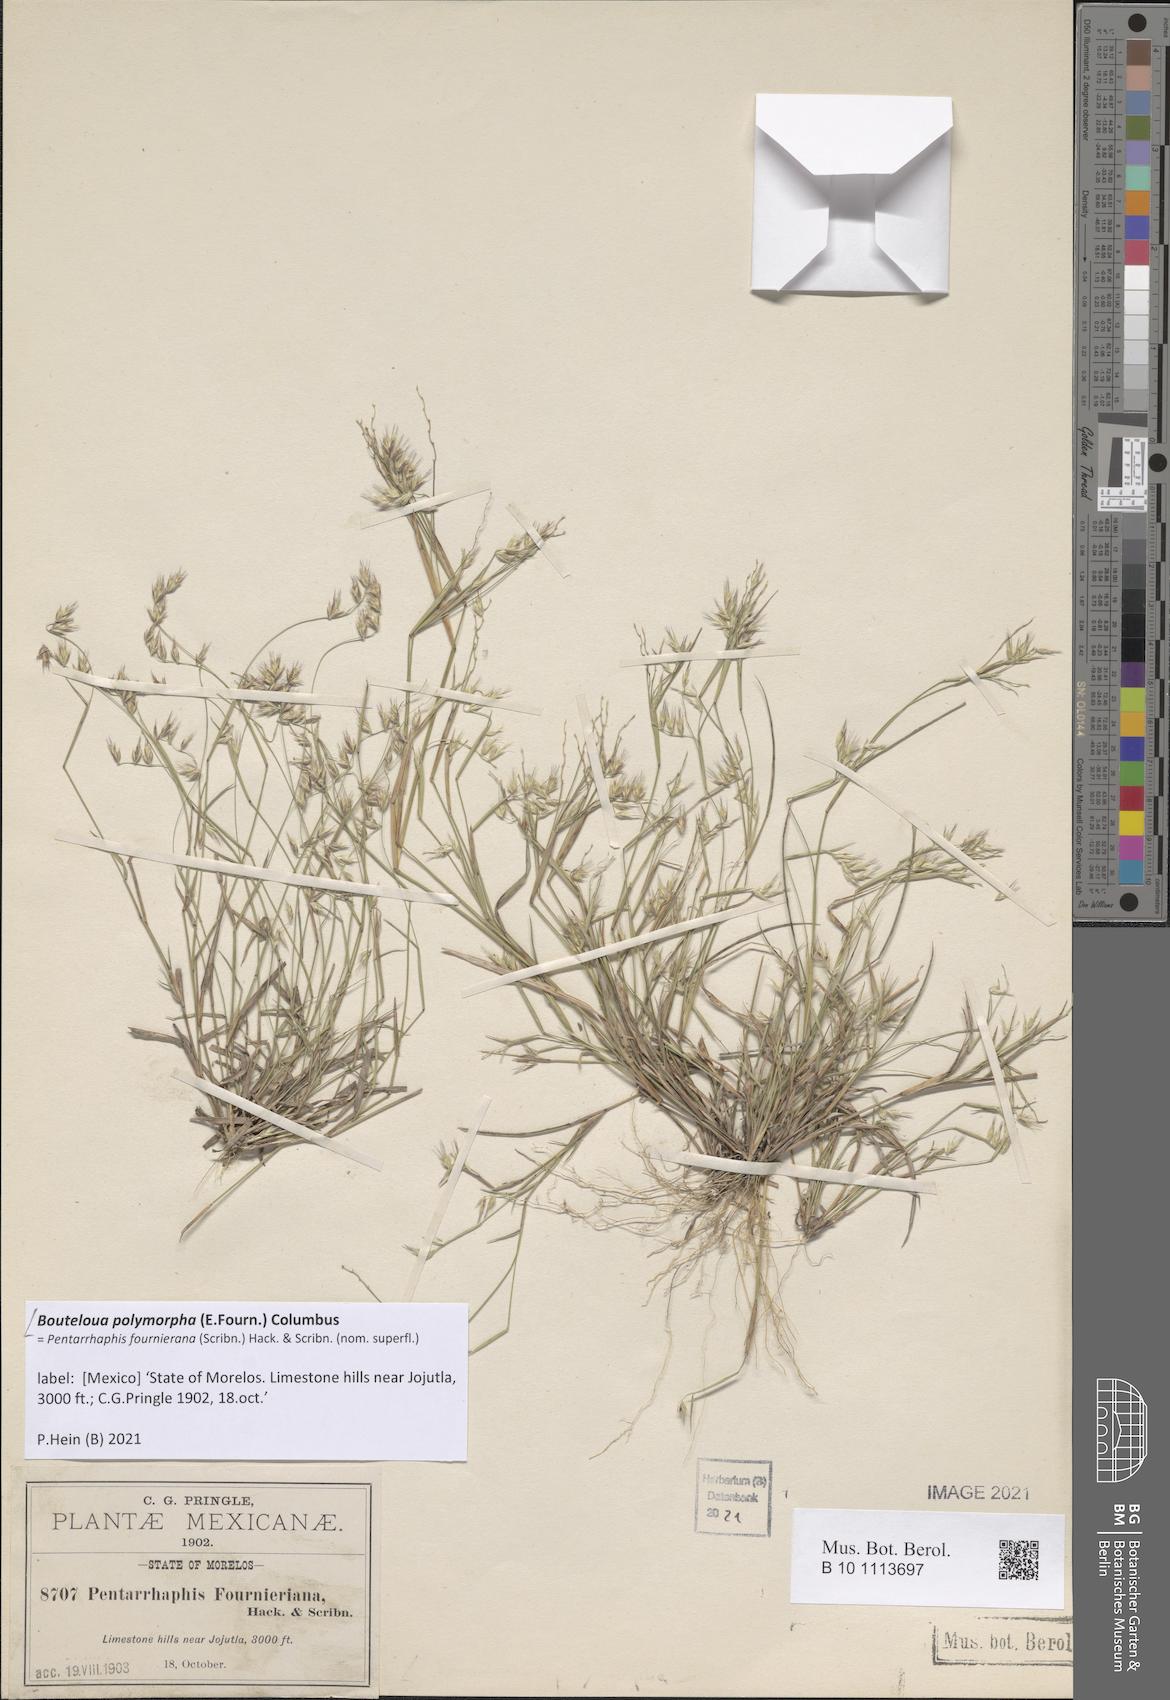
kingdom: Plantae
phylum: Tracheophyta
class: Liliopsida
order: Poales
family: Poaceae
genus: Bouteloua
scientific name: Bouteloua polymorpha
